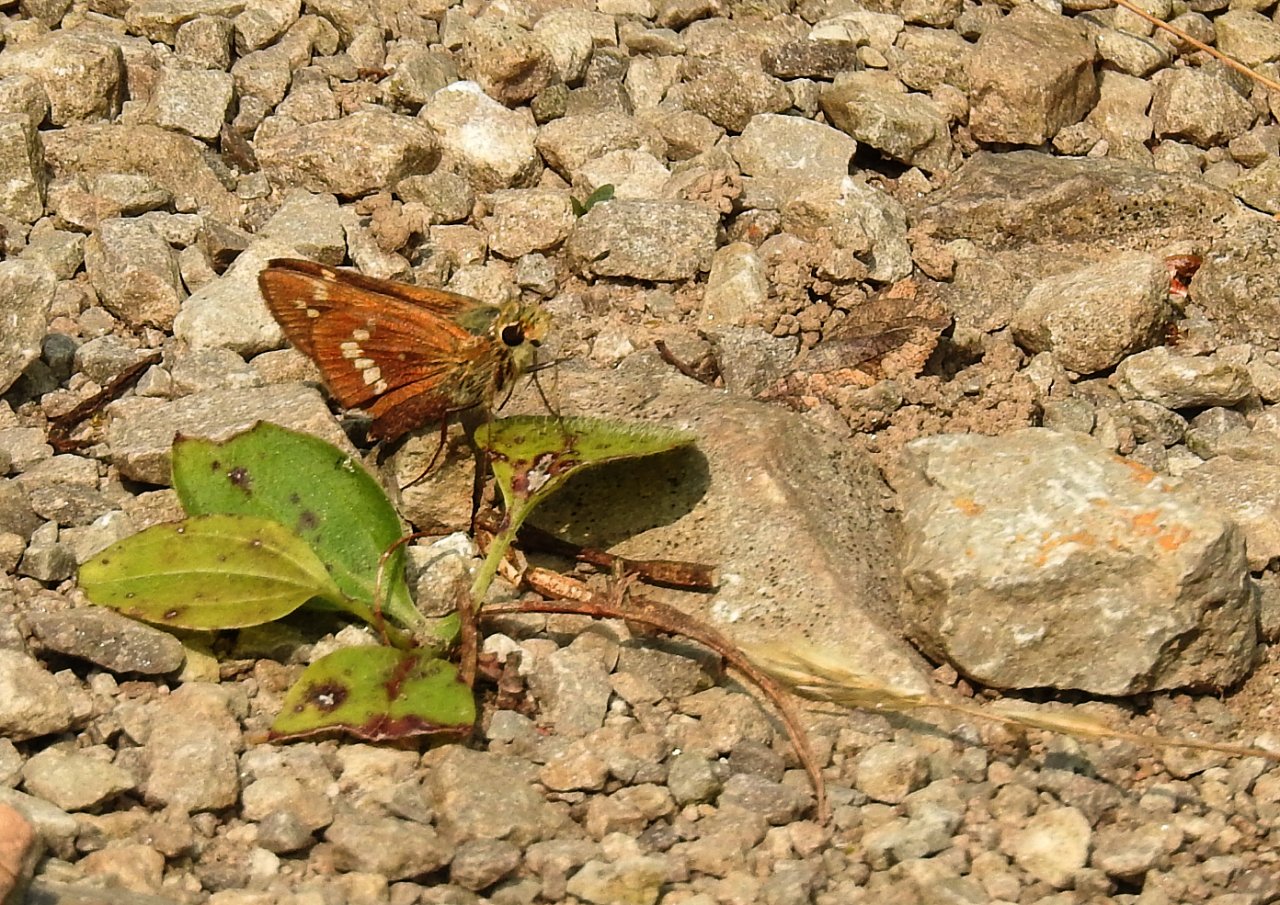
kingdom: Animalia
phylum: Arthropoda
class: Insecta
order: Lepidoptera
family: Hesperiidae
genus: Hesperia
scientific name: Hesperia leonardus
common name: Leonard's Skipper
